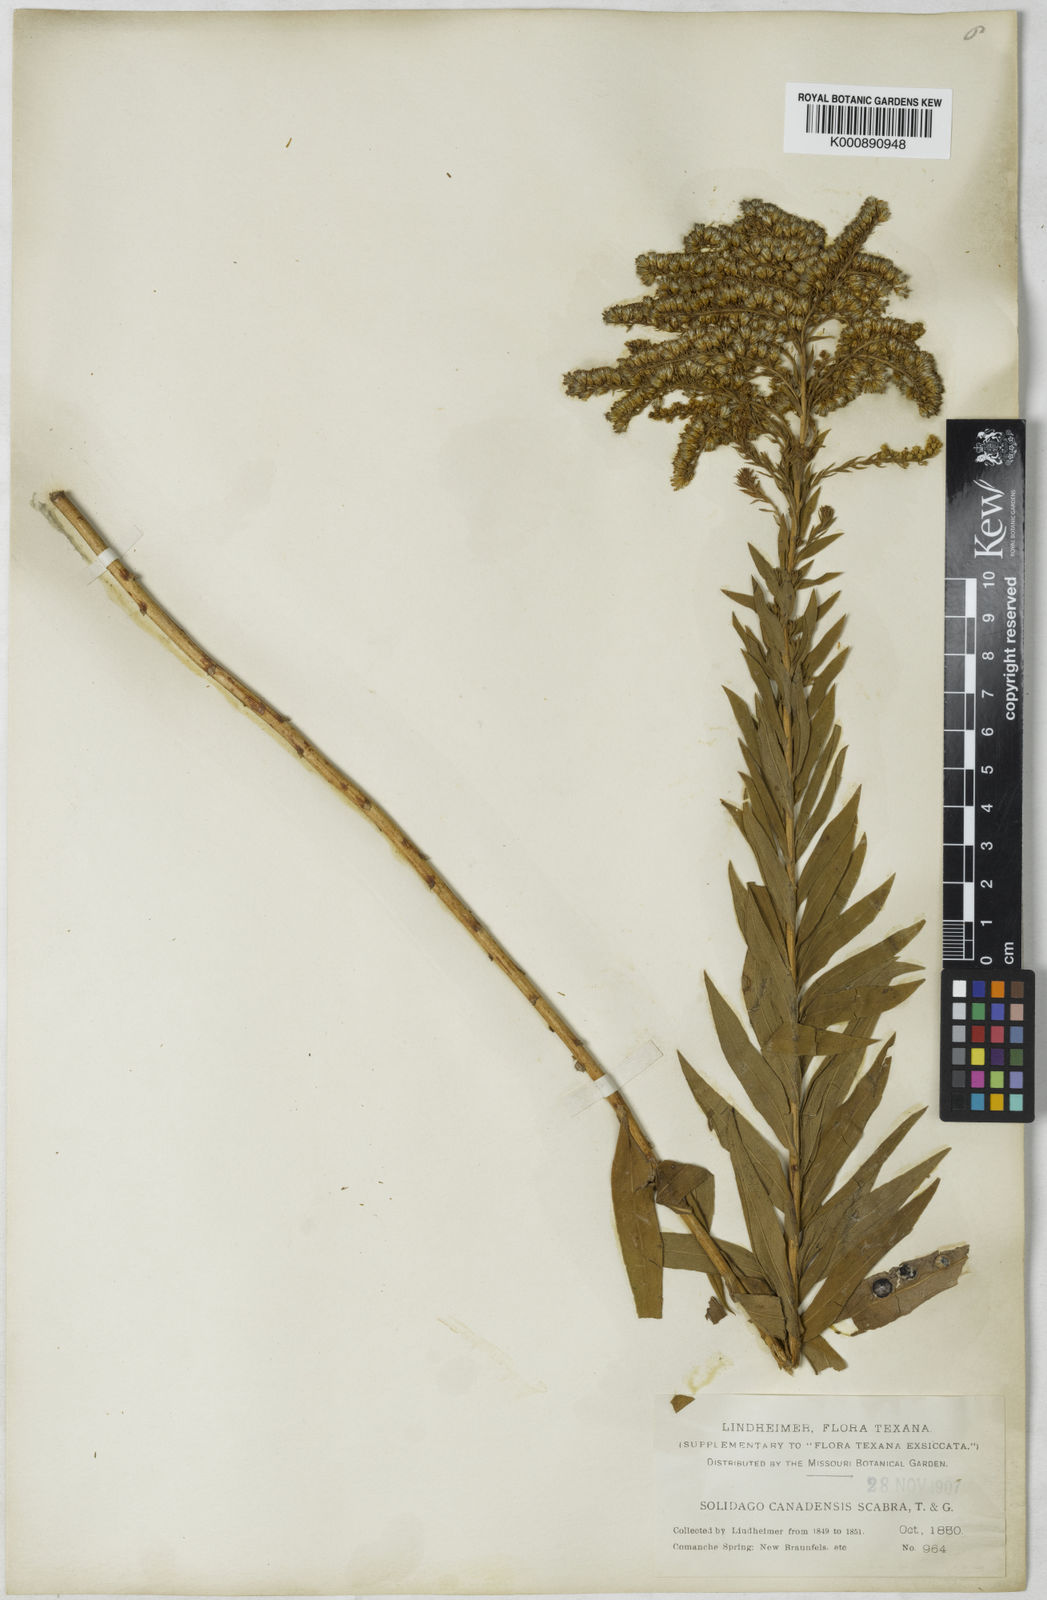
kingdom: Plantae
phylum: Tracheophyta
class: Magnoliopsida
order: Asterales
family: Asteraceae
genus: Solidago
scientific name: Solidago altissima
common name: Late goldenrod
